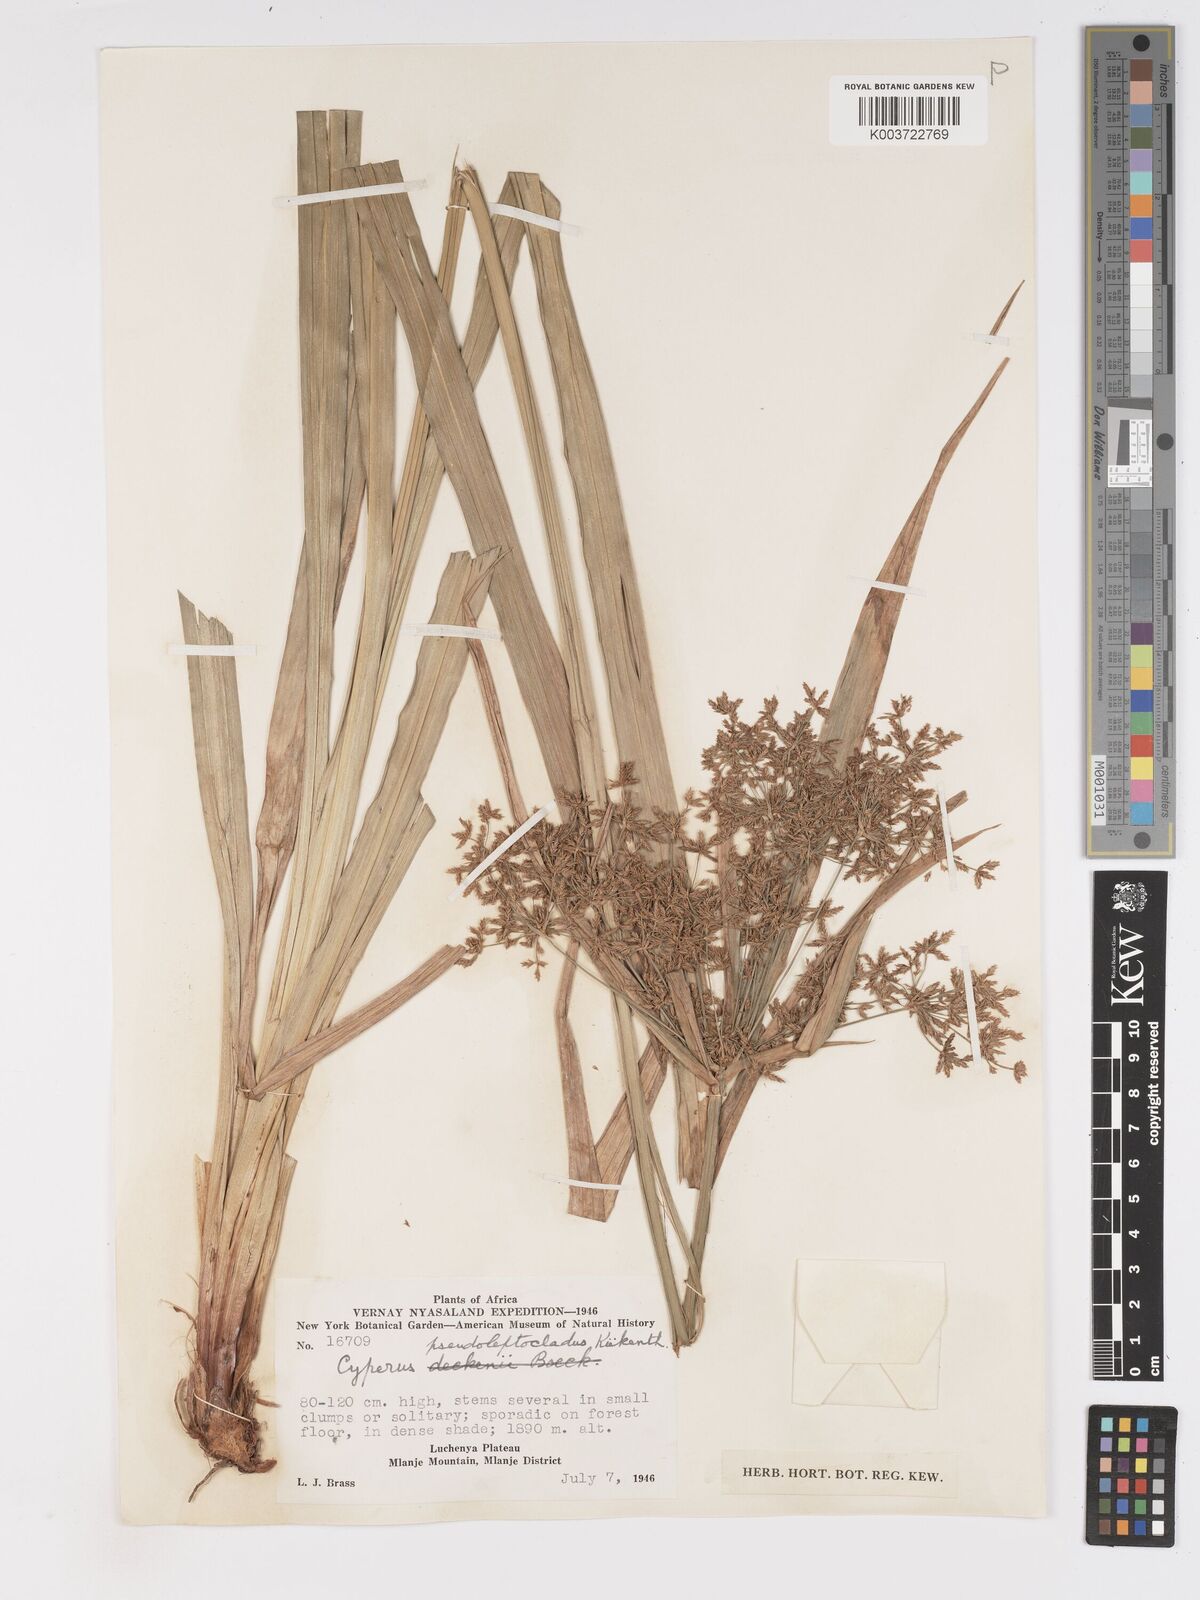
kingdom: Plantae
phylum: Tracheophyta
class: Liliopsida
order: Poales
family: Cyperaceae
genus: Cyperus
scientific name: Cyperus ajax
